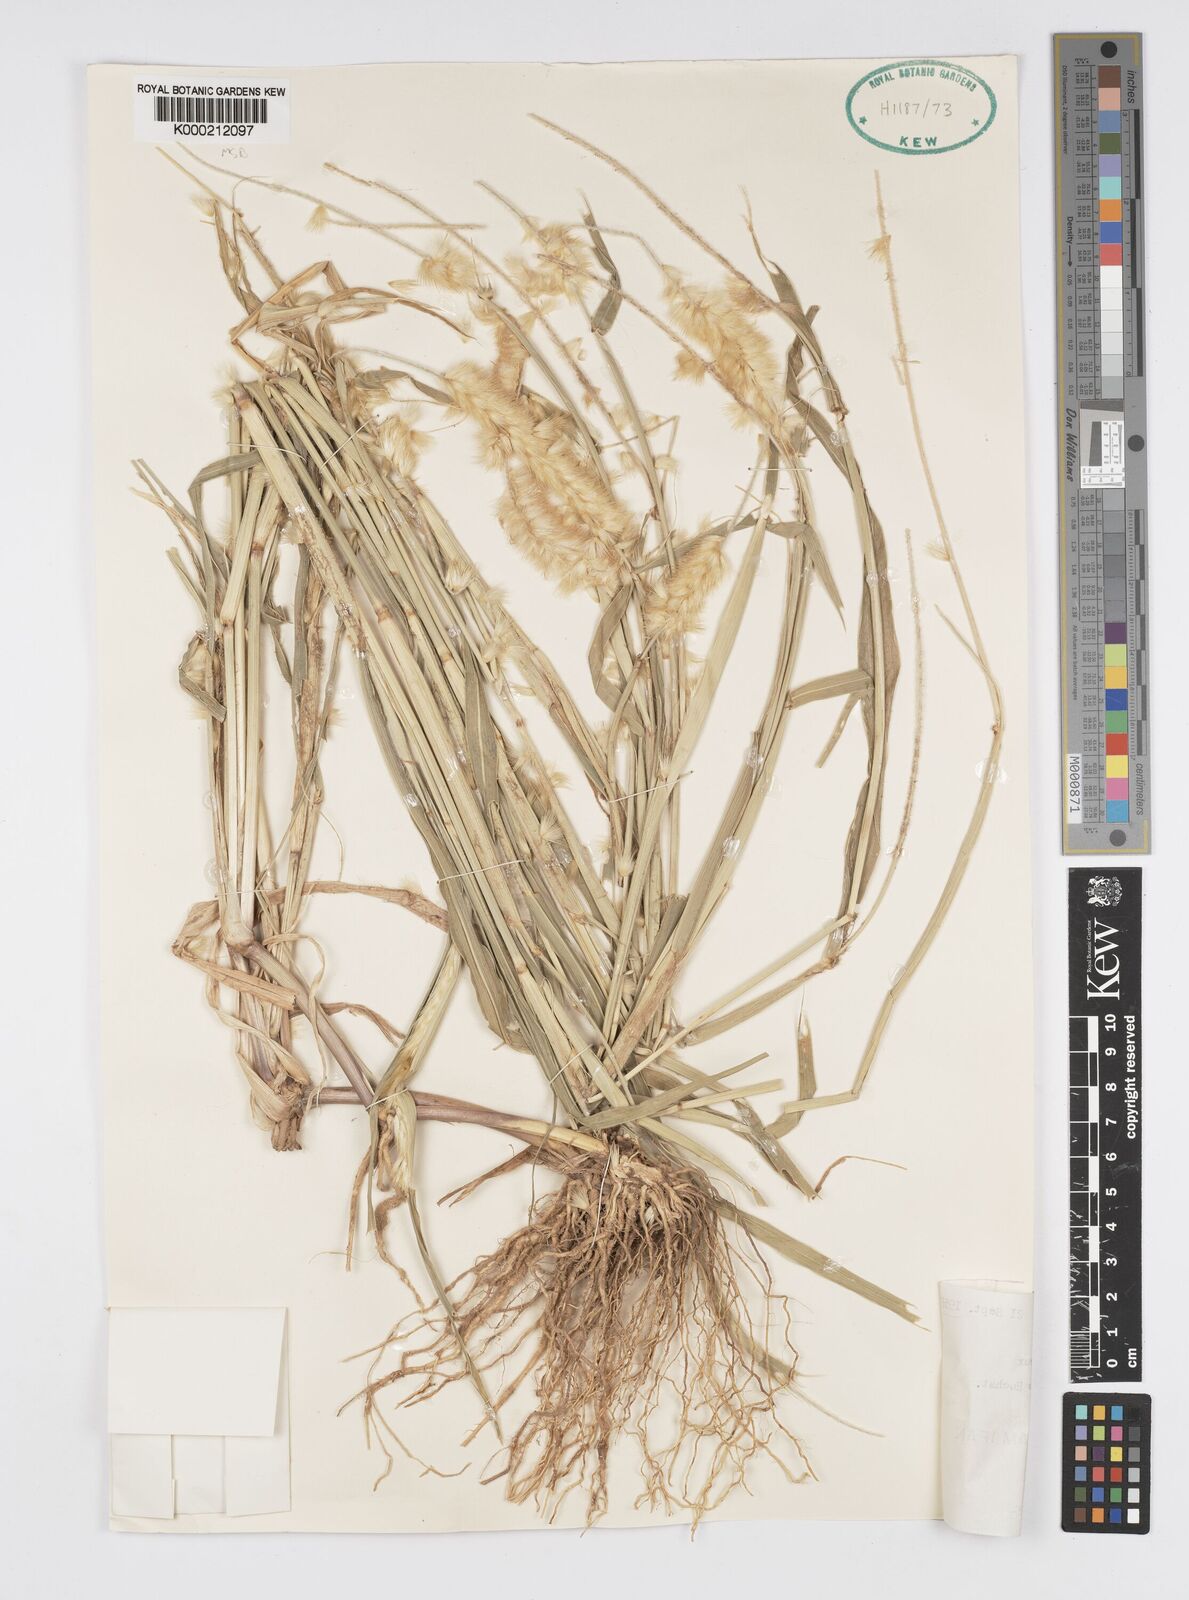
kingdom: Plantae
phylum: Tracheophyta
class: Liliopsida
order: Poales
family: Poaceae
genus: Cenchrus
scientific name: Cenchrus violaceus
